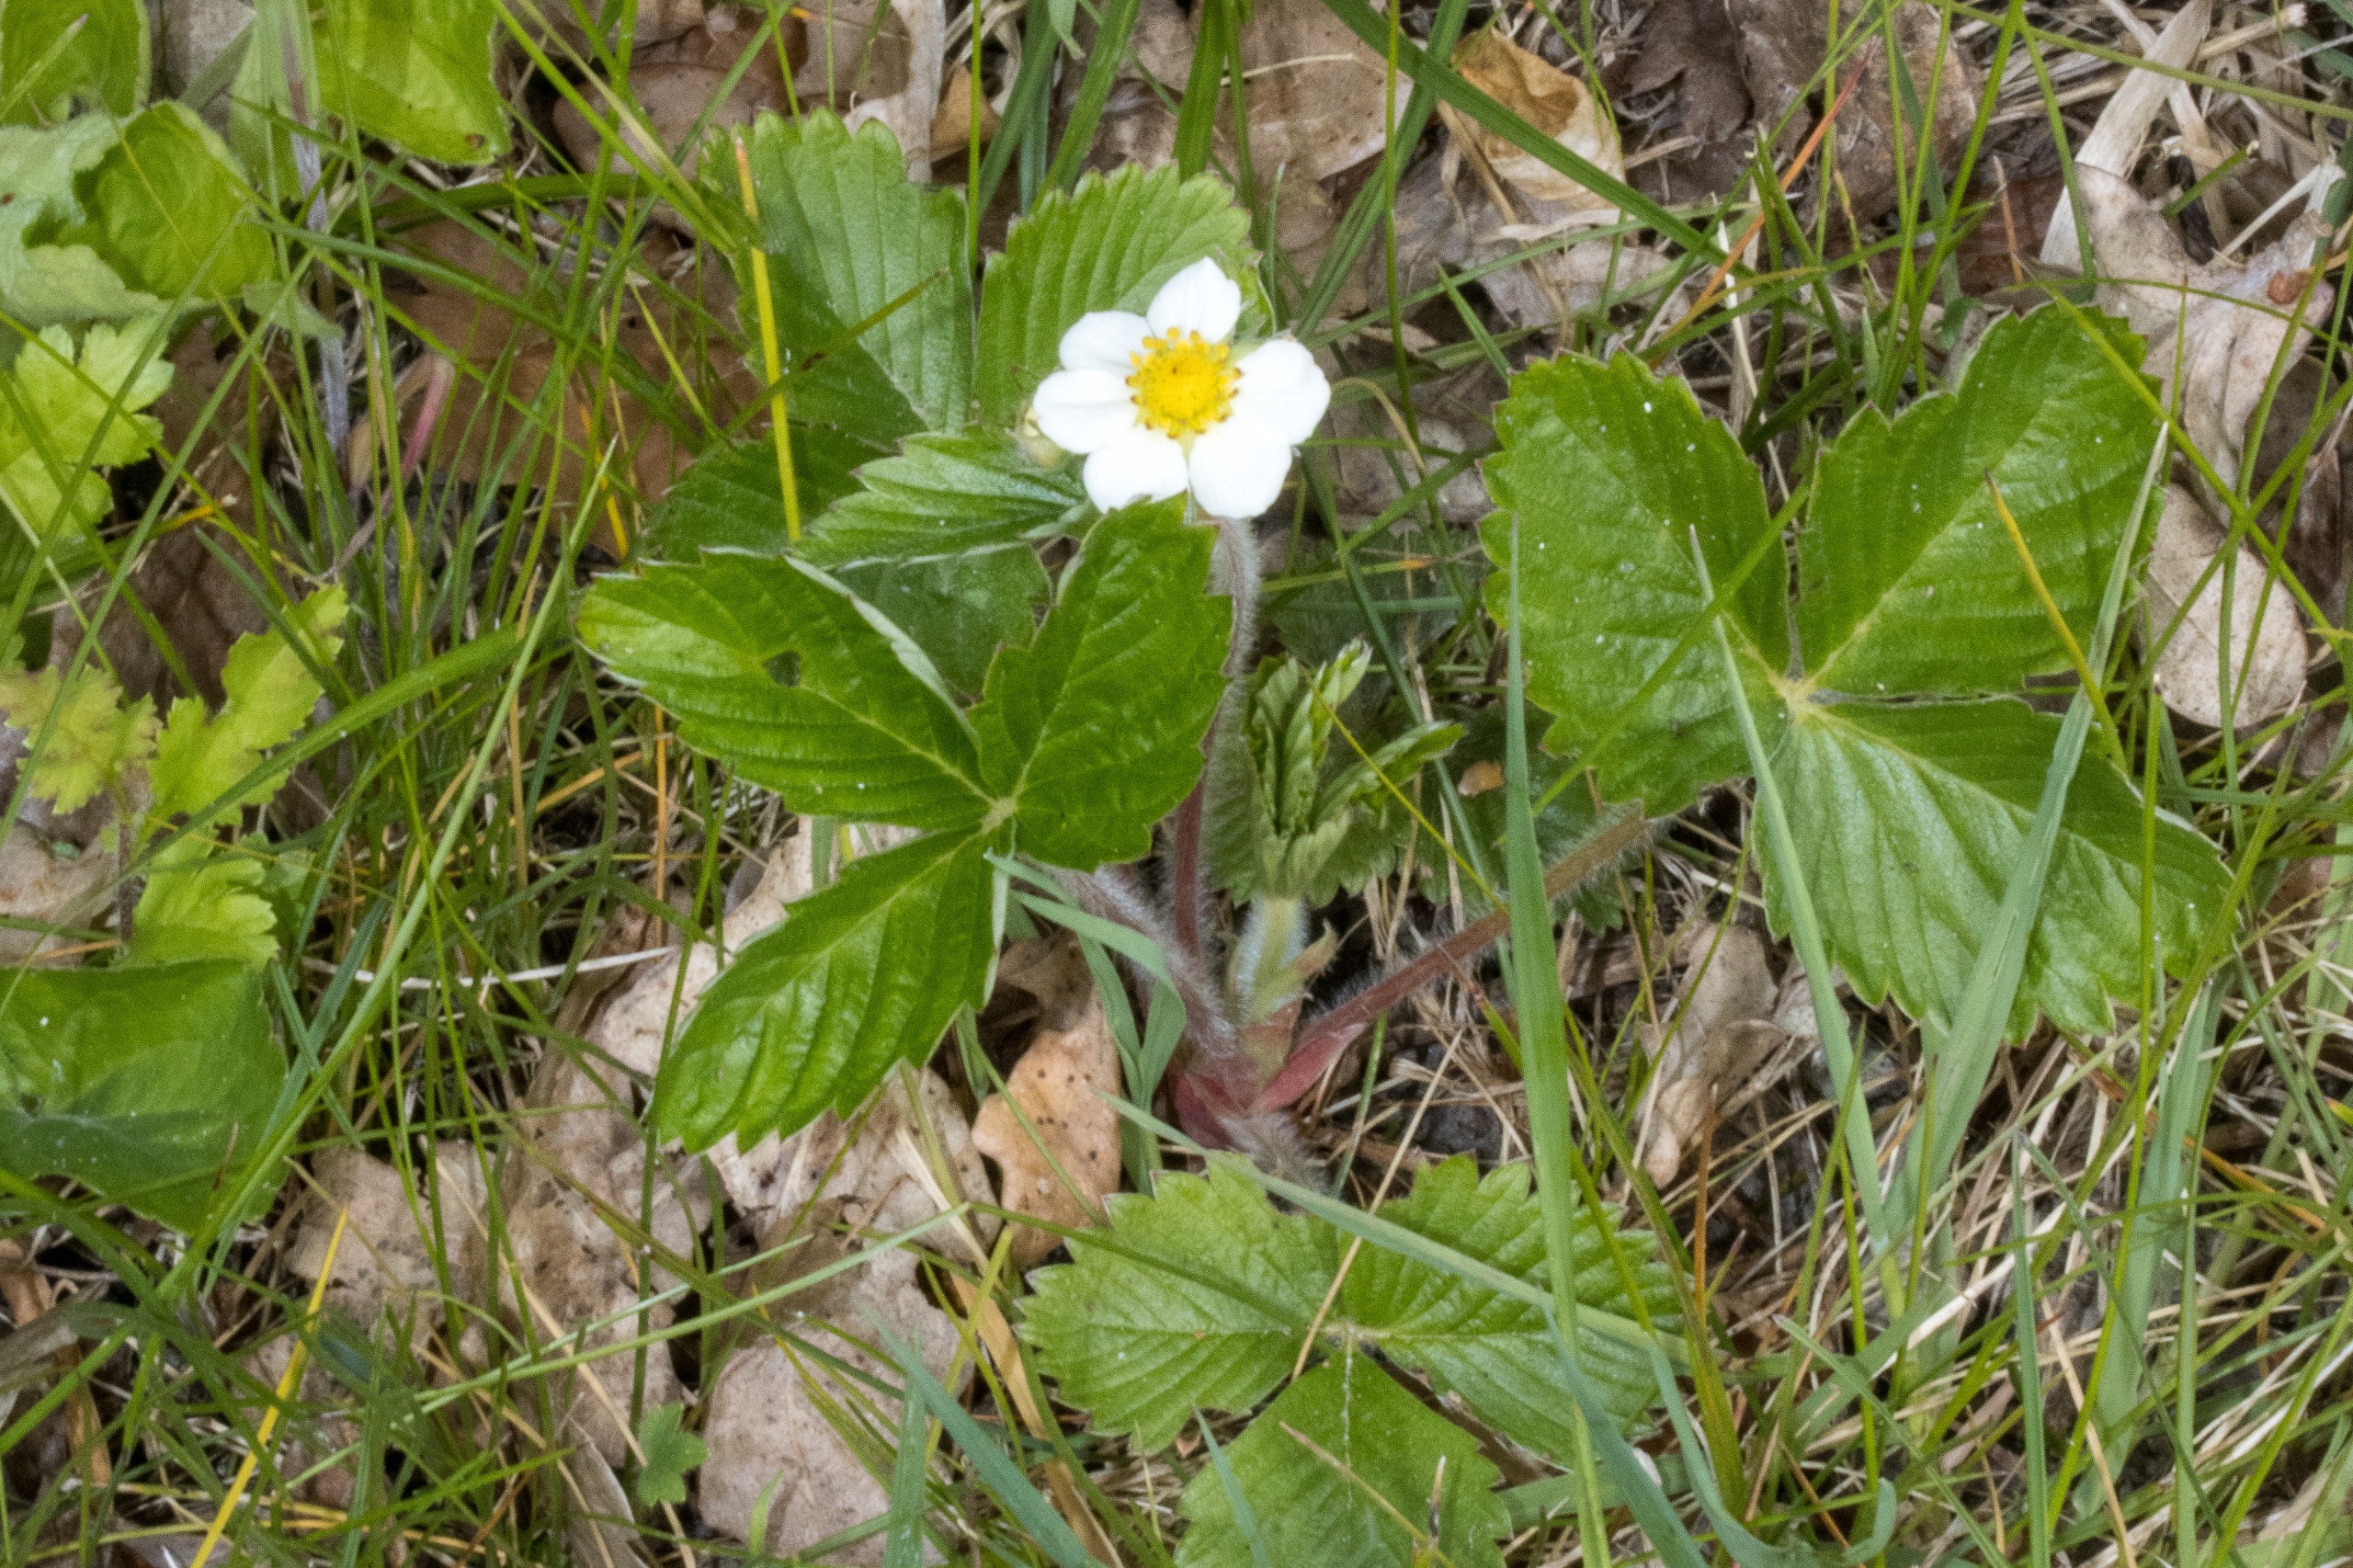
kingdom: Plantae
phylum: Tracheophyta
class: Magnoliopsida
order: Rosales
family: Rosaceae
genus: Fragaria
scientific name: Fragaria vesca
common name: Skov-jordbær
